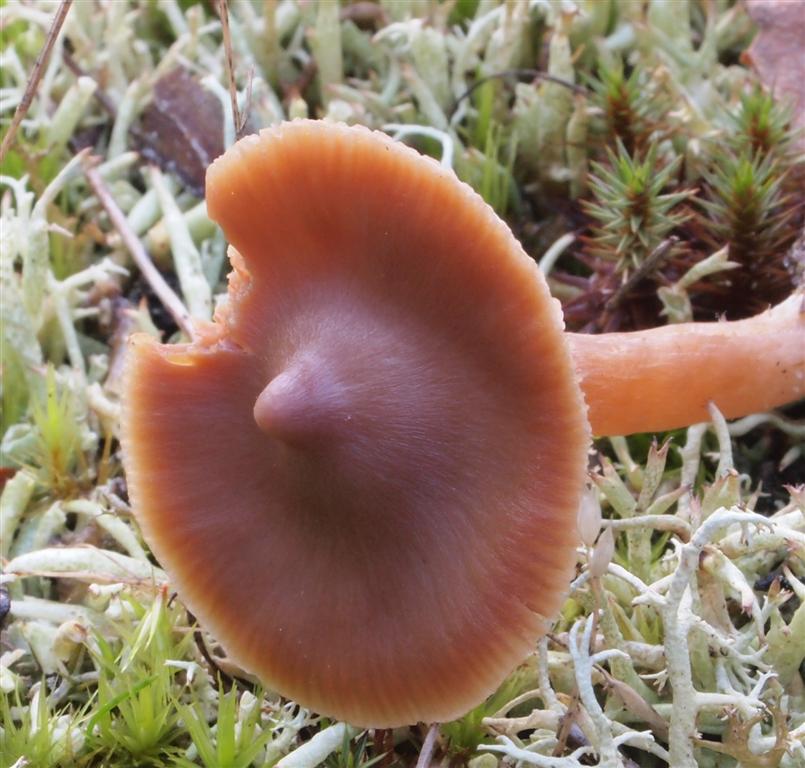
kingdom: Fungi
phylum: Basidiomycota
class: Agaricomycetes
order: Agaricales
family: Cortinariaceae
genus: Cortinarius
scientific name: Cortinarius obtusorum
